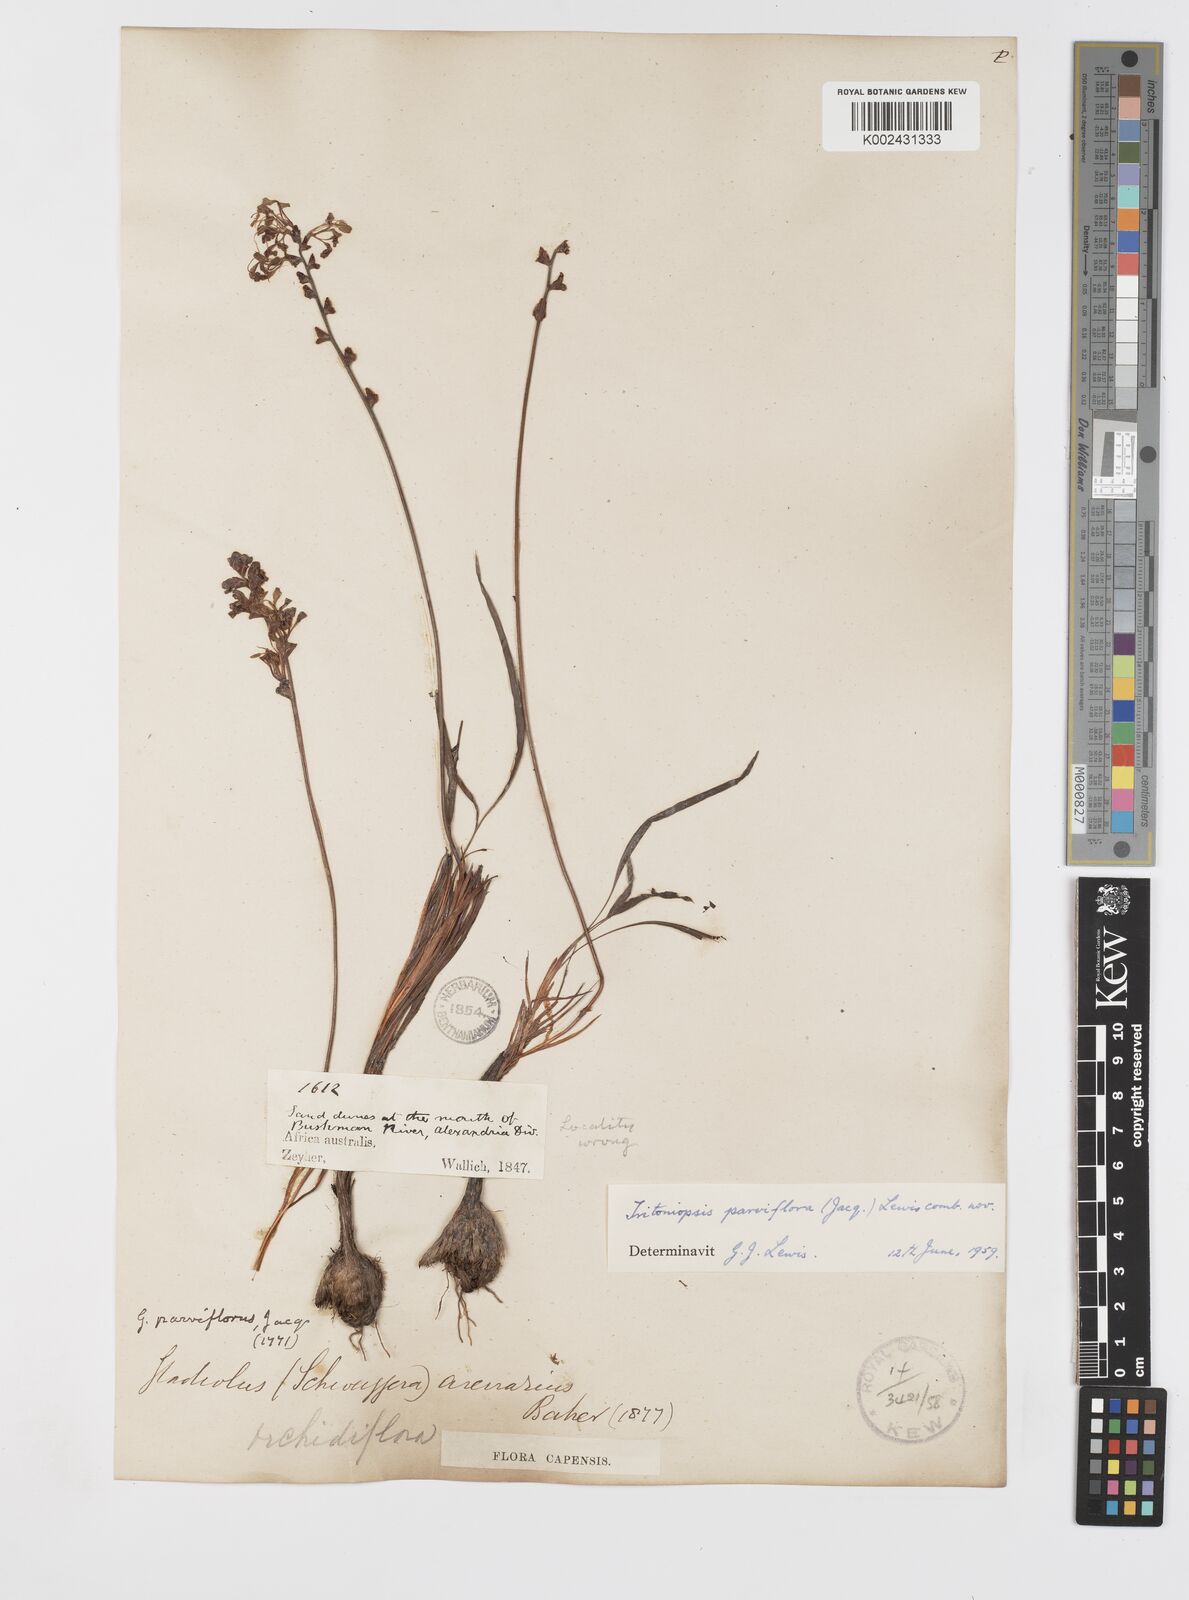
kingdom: Plantae
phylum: Tracheophyta
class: Liliopsida
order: Asparagales
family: Iridaceae
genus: Tritoniopsis
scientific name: Tritoniopsis parviflora
